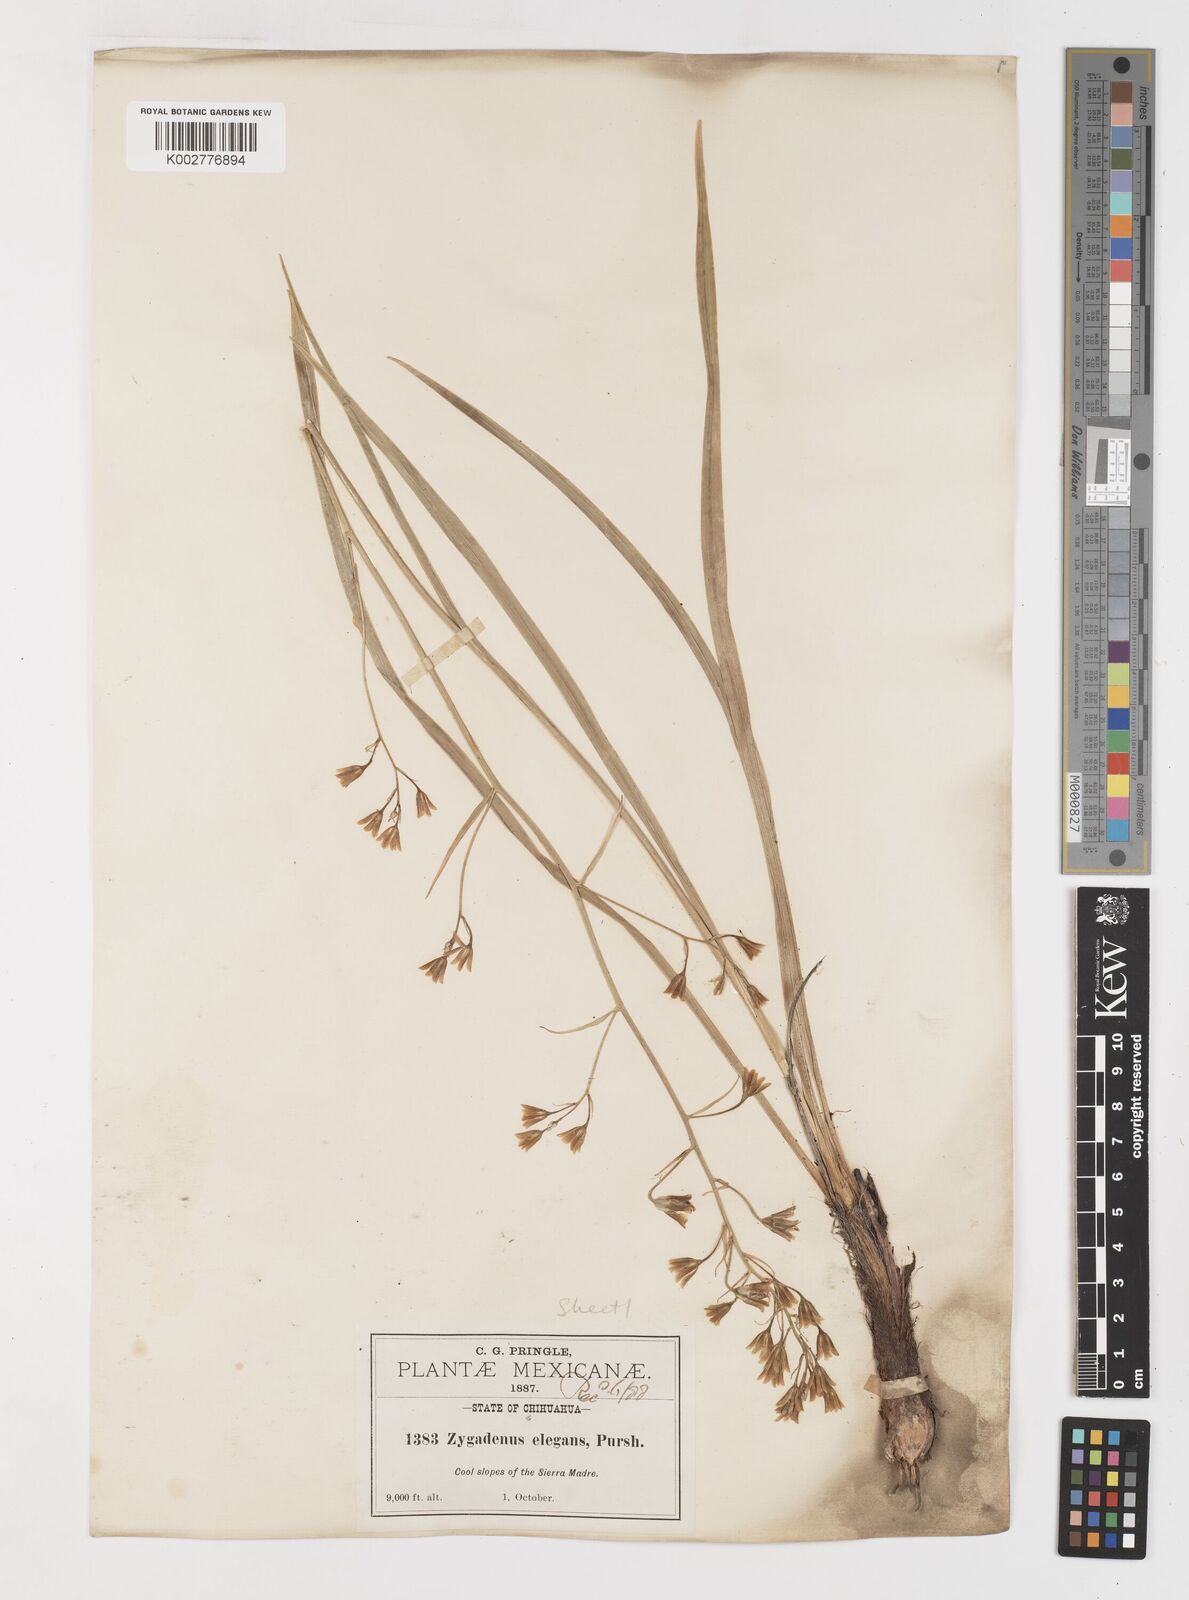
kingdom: Plantae
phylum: Tracheophyta
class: Liliopsida
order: Liliales
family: Melanthiaceae
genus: Anticlea
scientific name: Anticlea virescens
